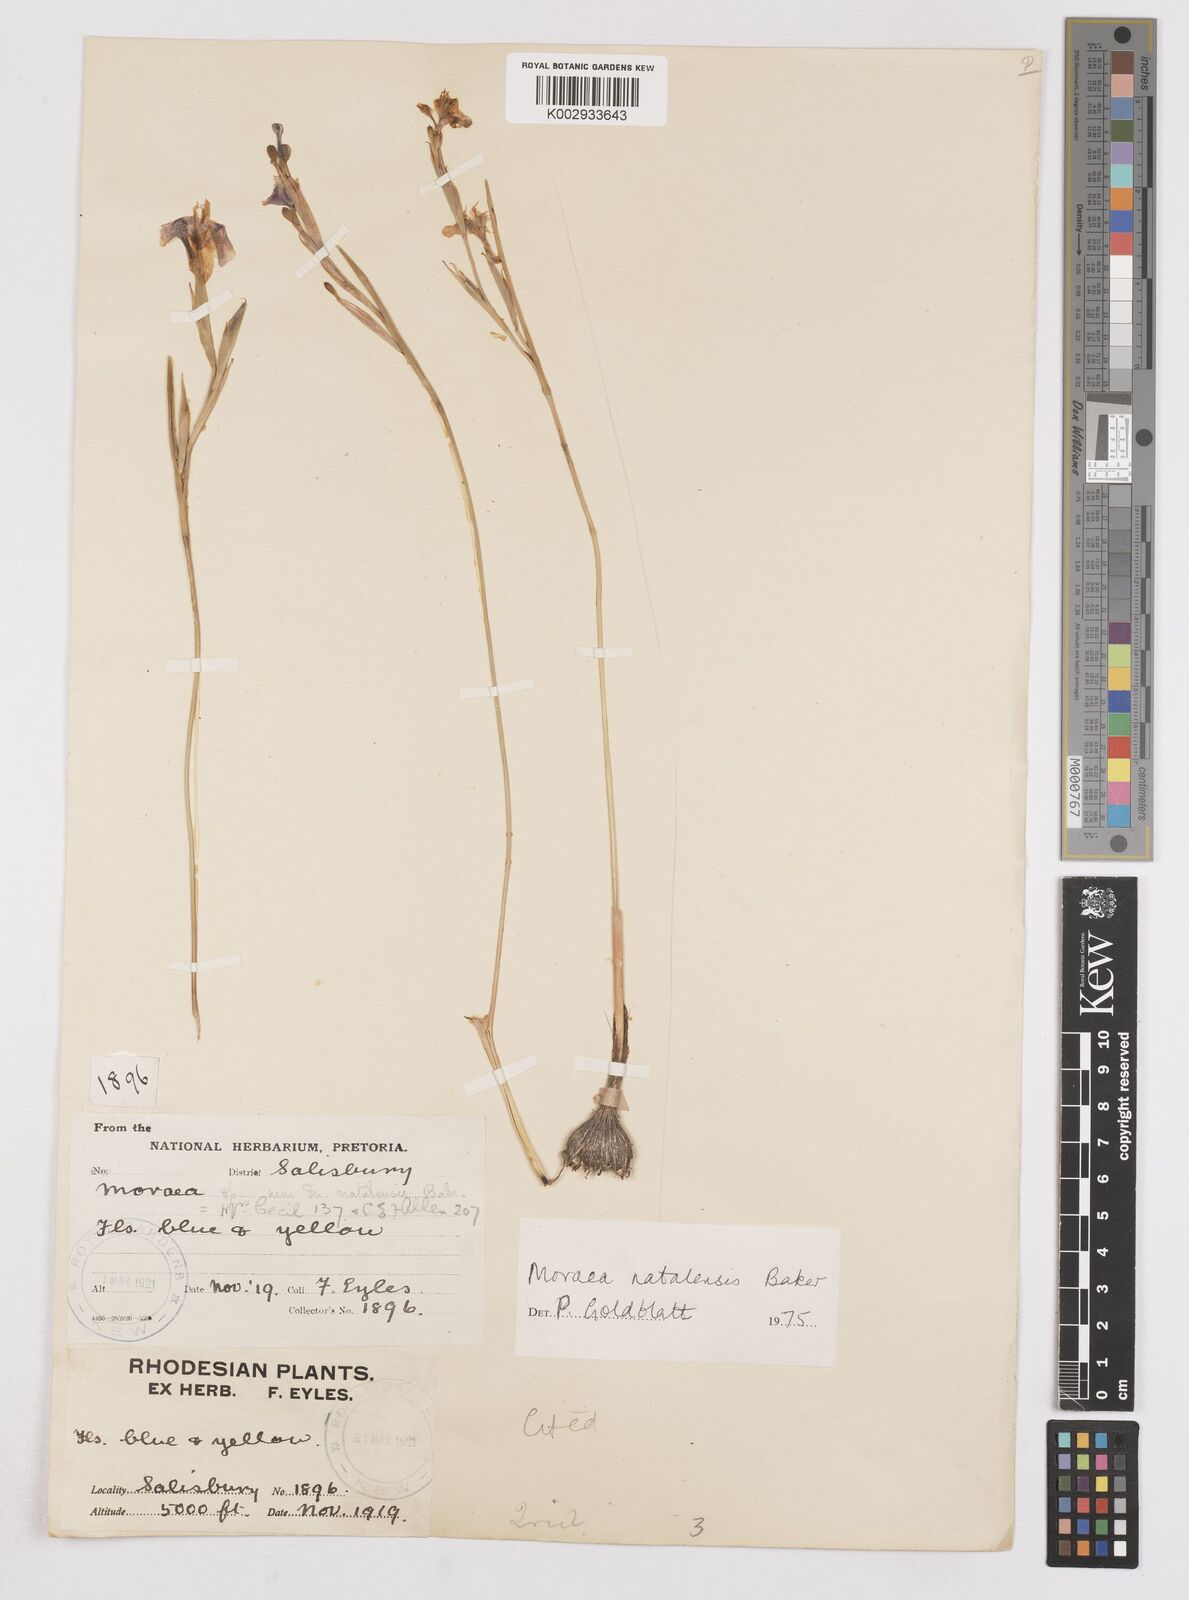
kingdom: Plantae
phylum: Tracheophyta
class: Liliopsida
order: Asparagales
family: Iridaceae
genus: Moraea
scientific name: Moraea natalensis
